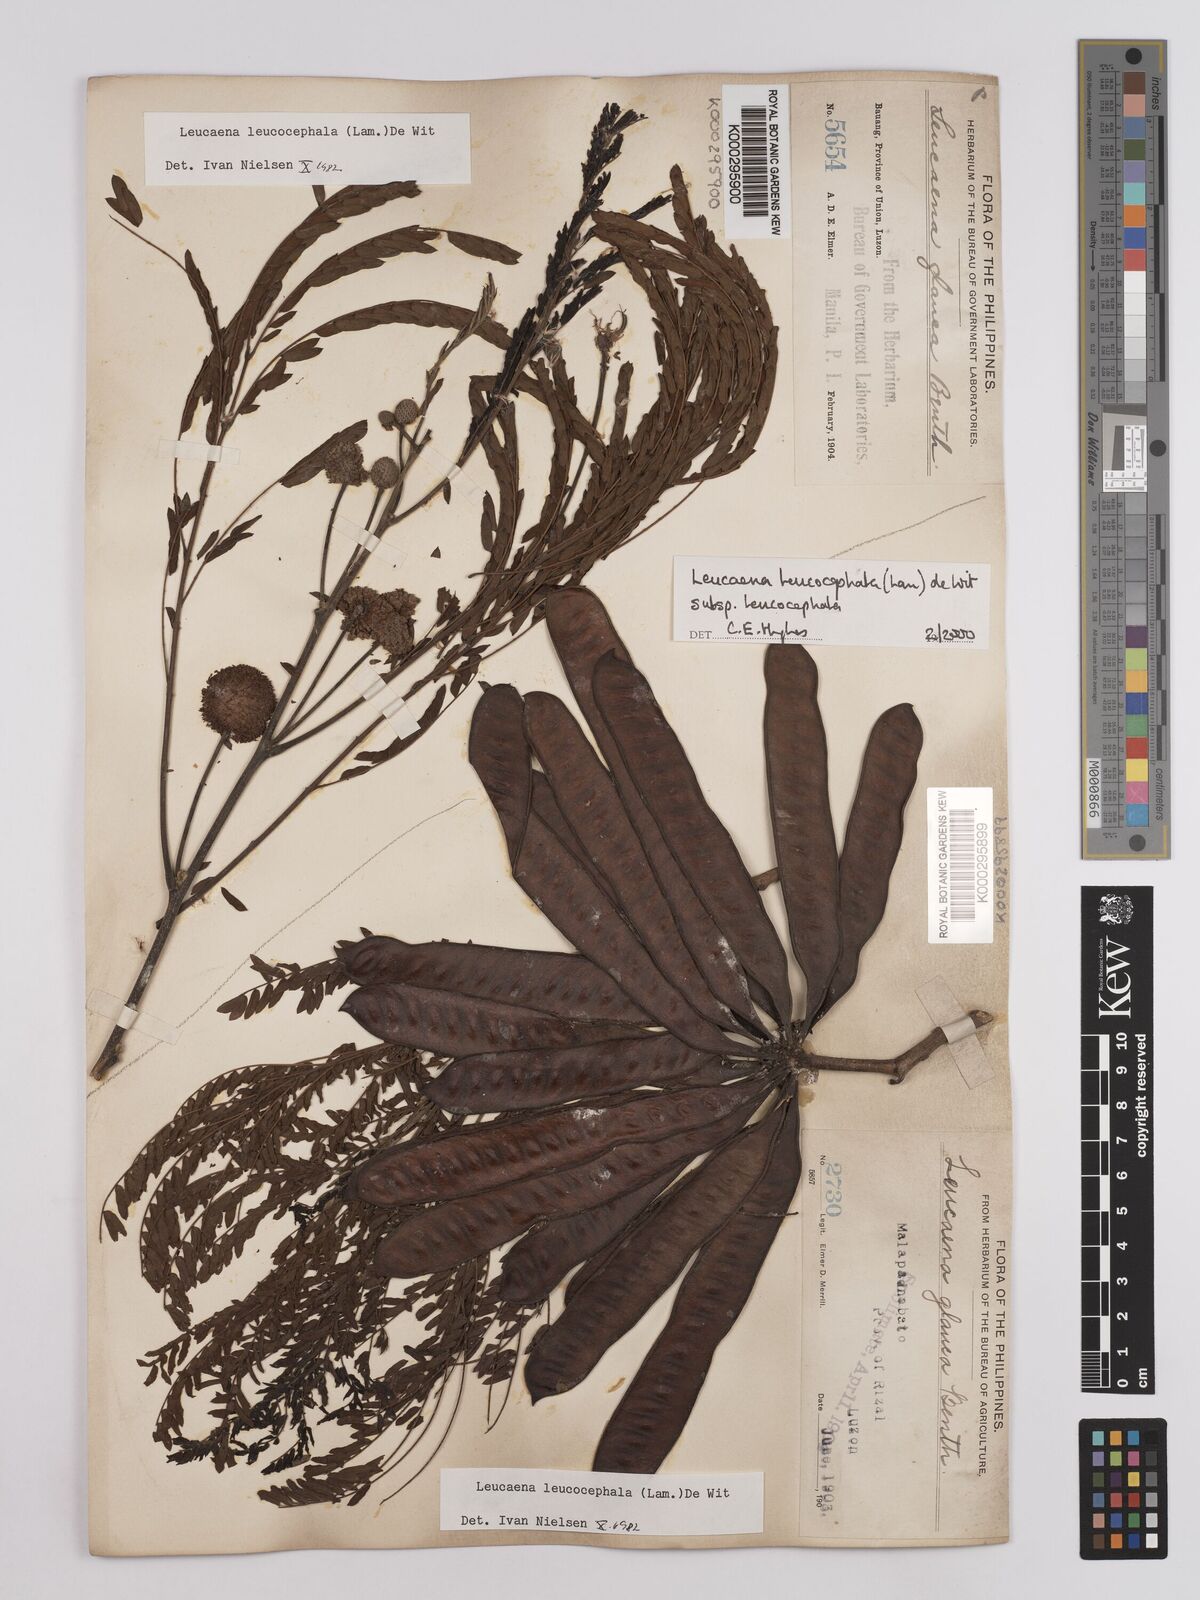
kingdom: Plantae
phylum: Tracheophyta
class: Magnoliopsida
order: Fabales
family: Fabaceae
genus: Leucaena
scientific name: Leucaena leucocephala
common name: White leadtree
